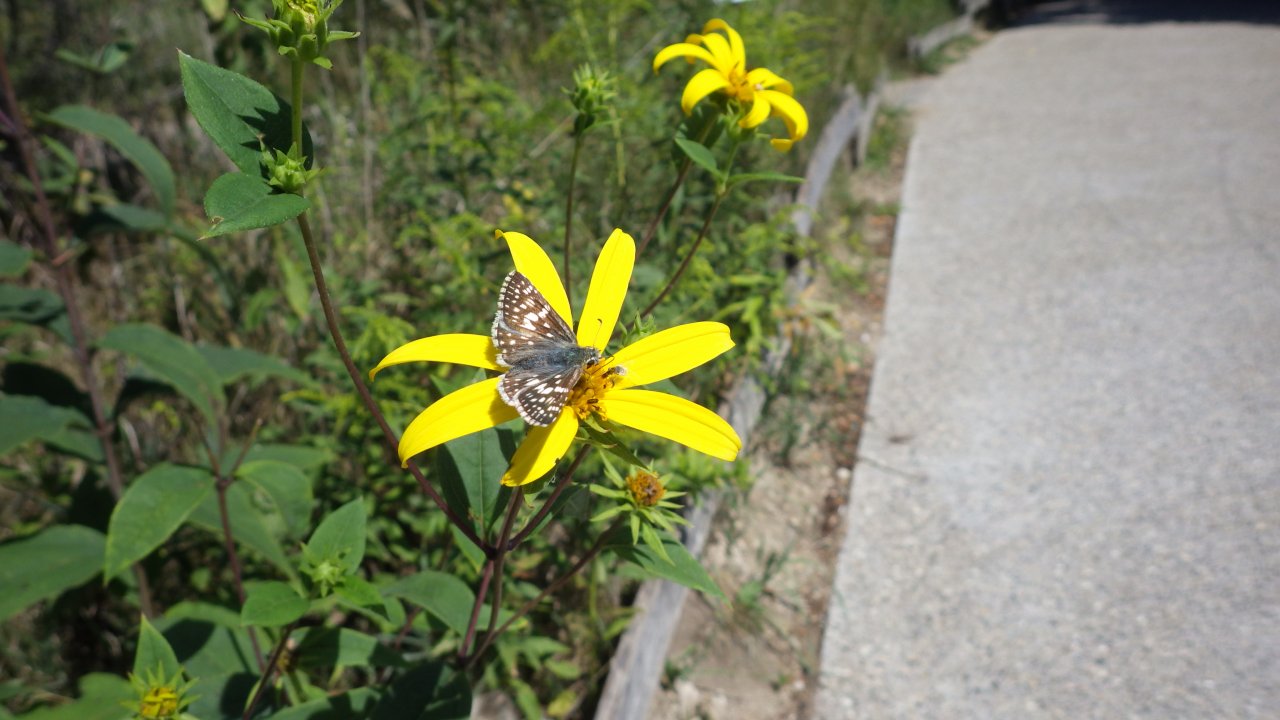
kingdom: Animalia
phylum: Arthropoda
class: Insecta
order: Lepidoptera
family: Hesperiidae
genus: Pyrgus
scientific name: Pyrgus communis
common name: Common Checkered-Skipper
